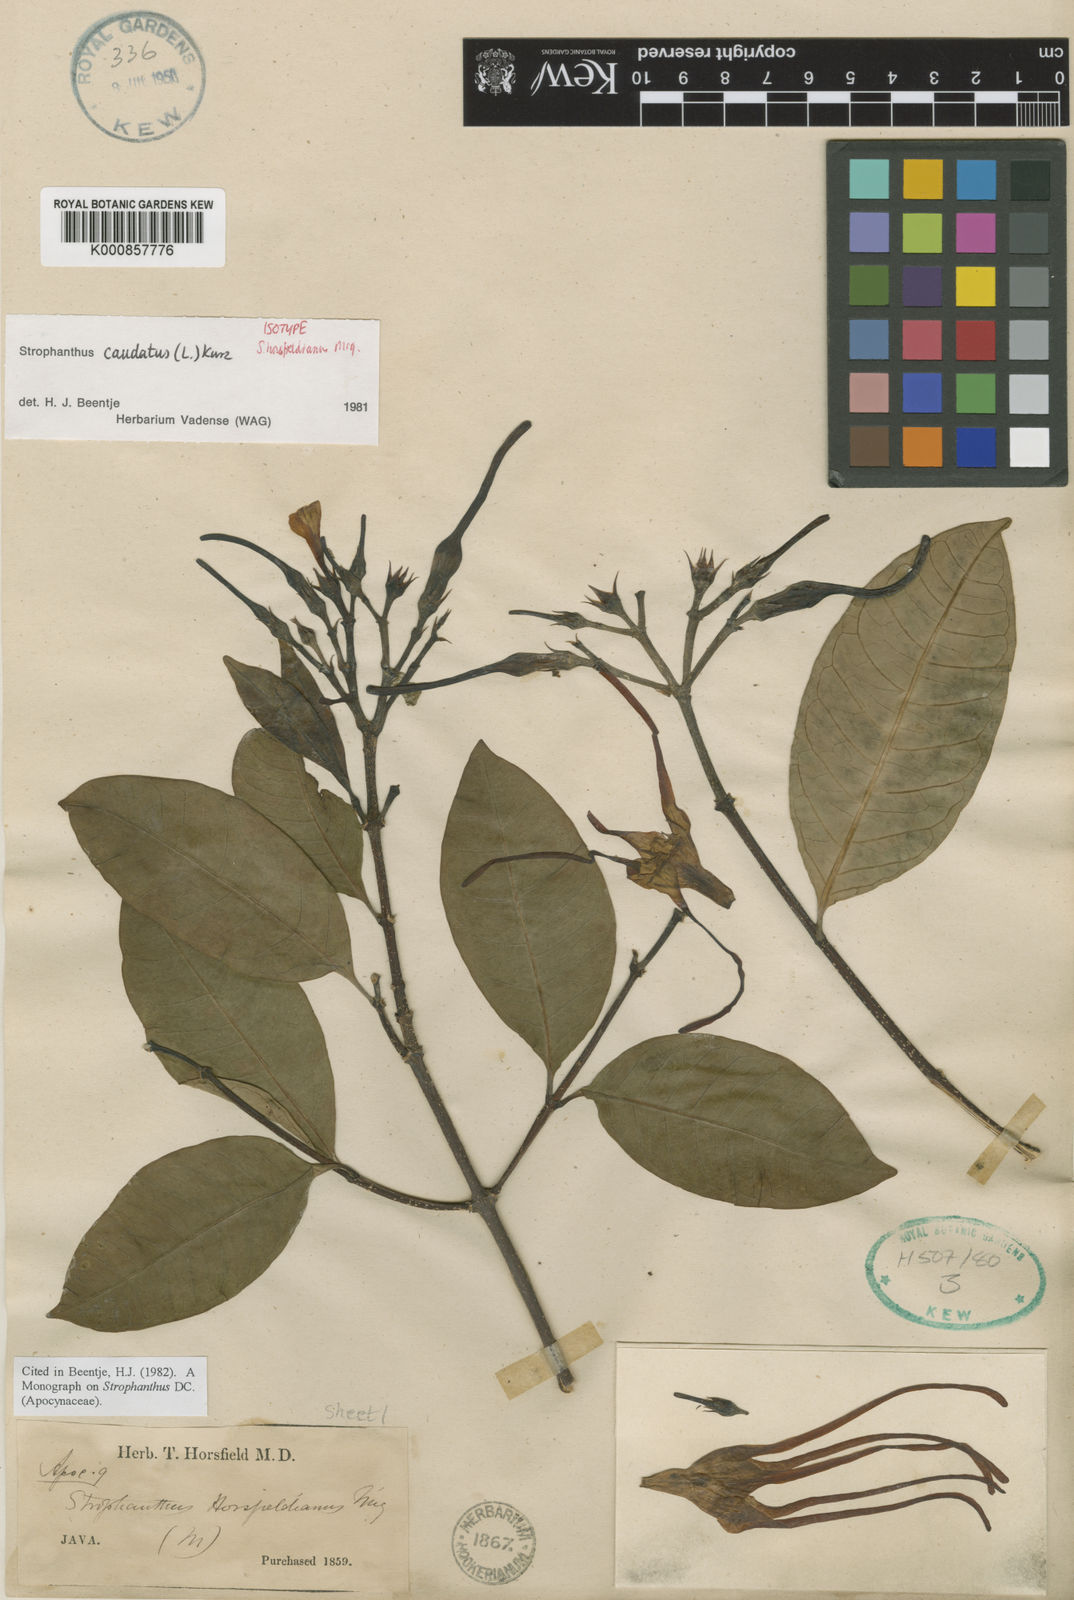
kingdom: Plantae
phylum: Tracheophyta
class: Magnoliopsida
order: Gentianales
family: Apocynaceae
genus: Strophanthus
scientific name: Strophanthus caudatus
